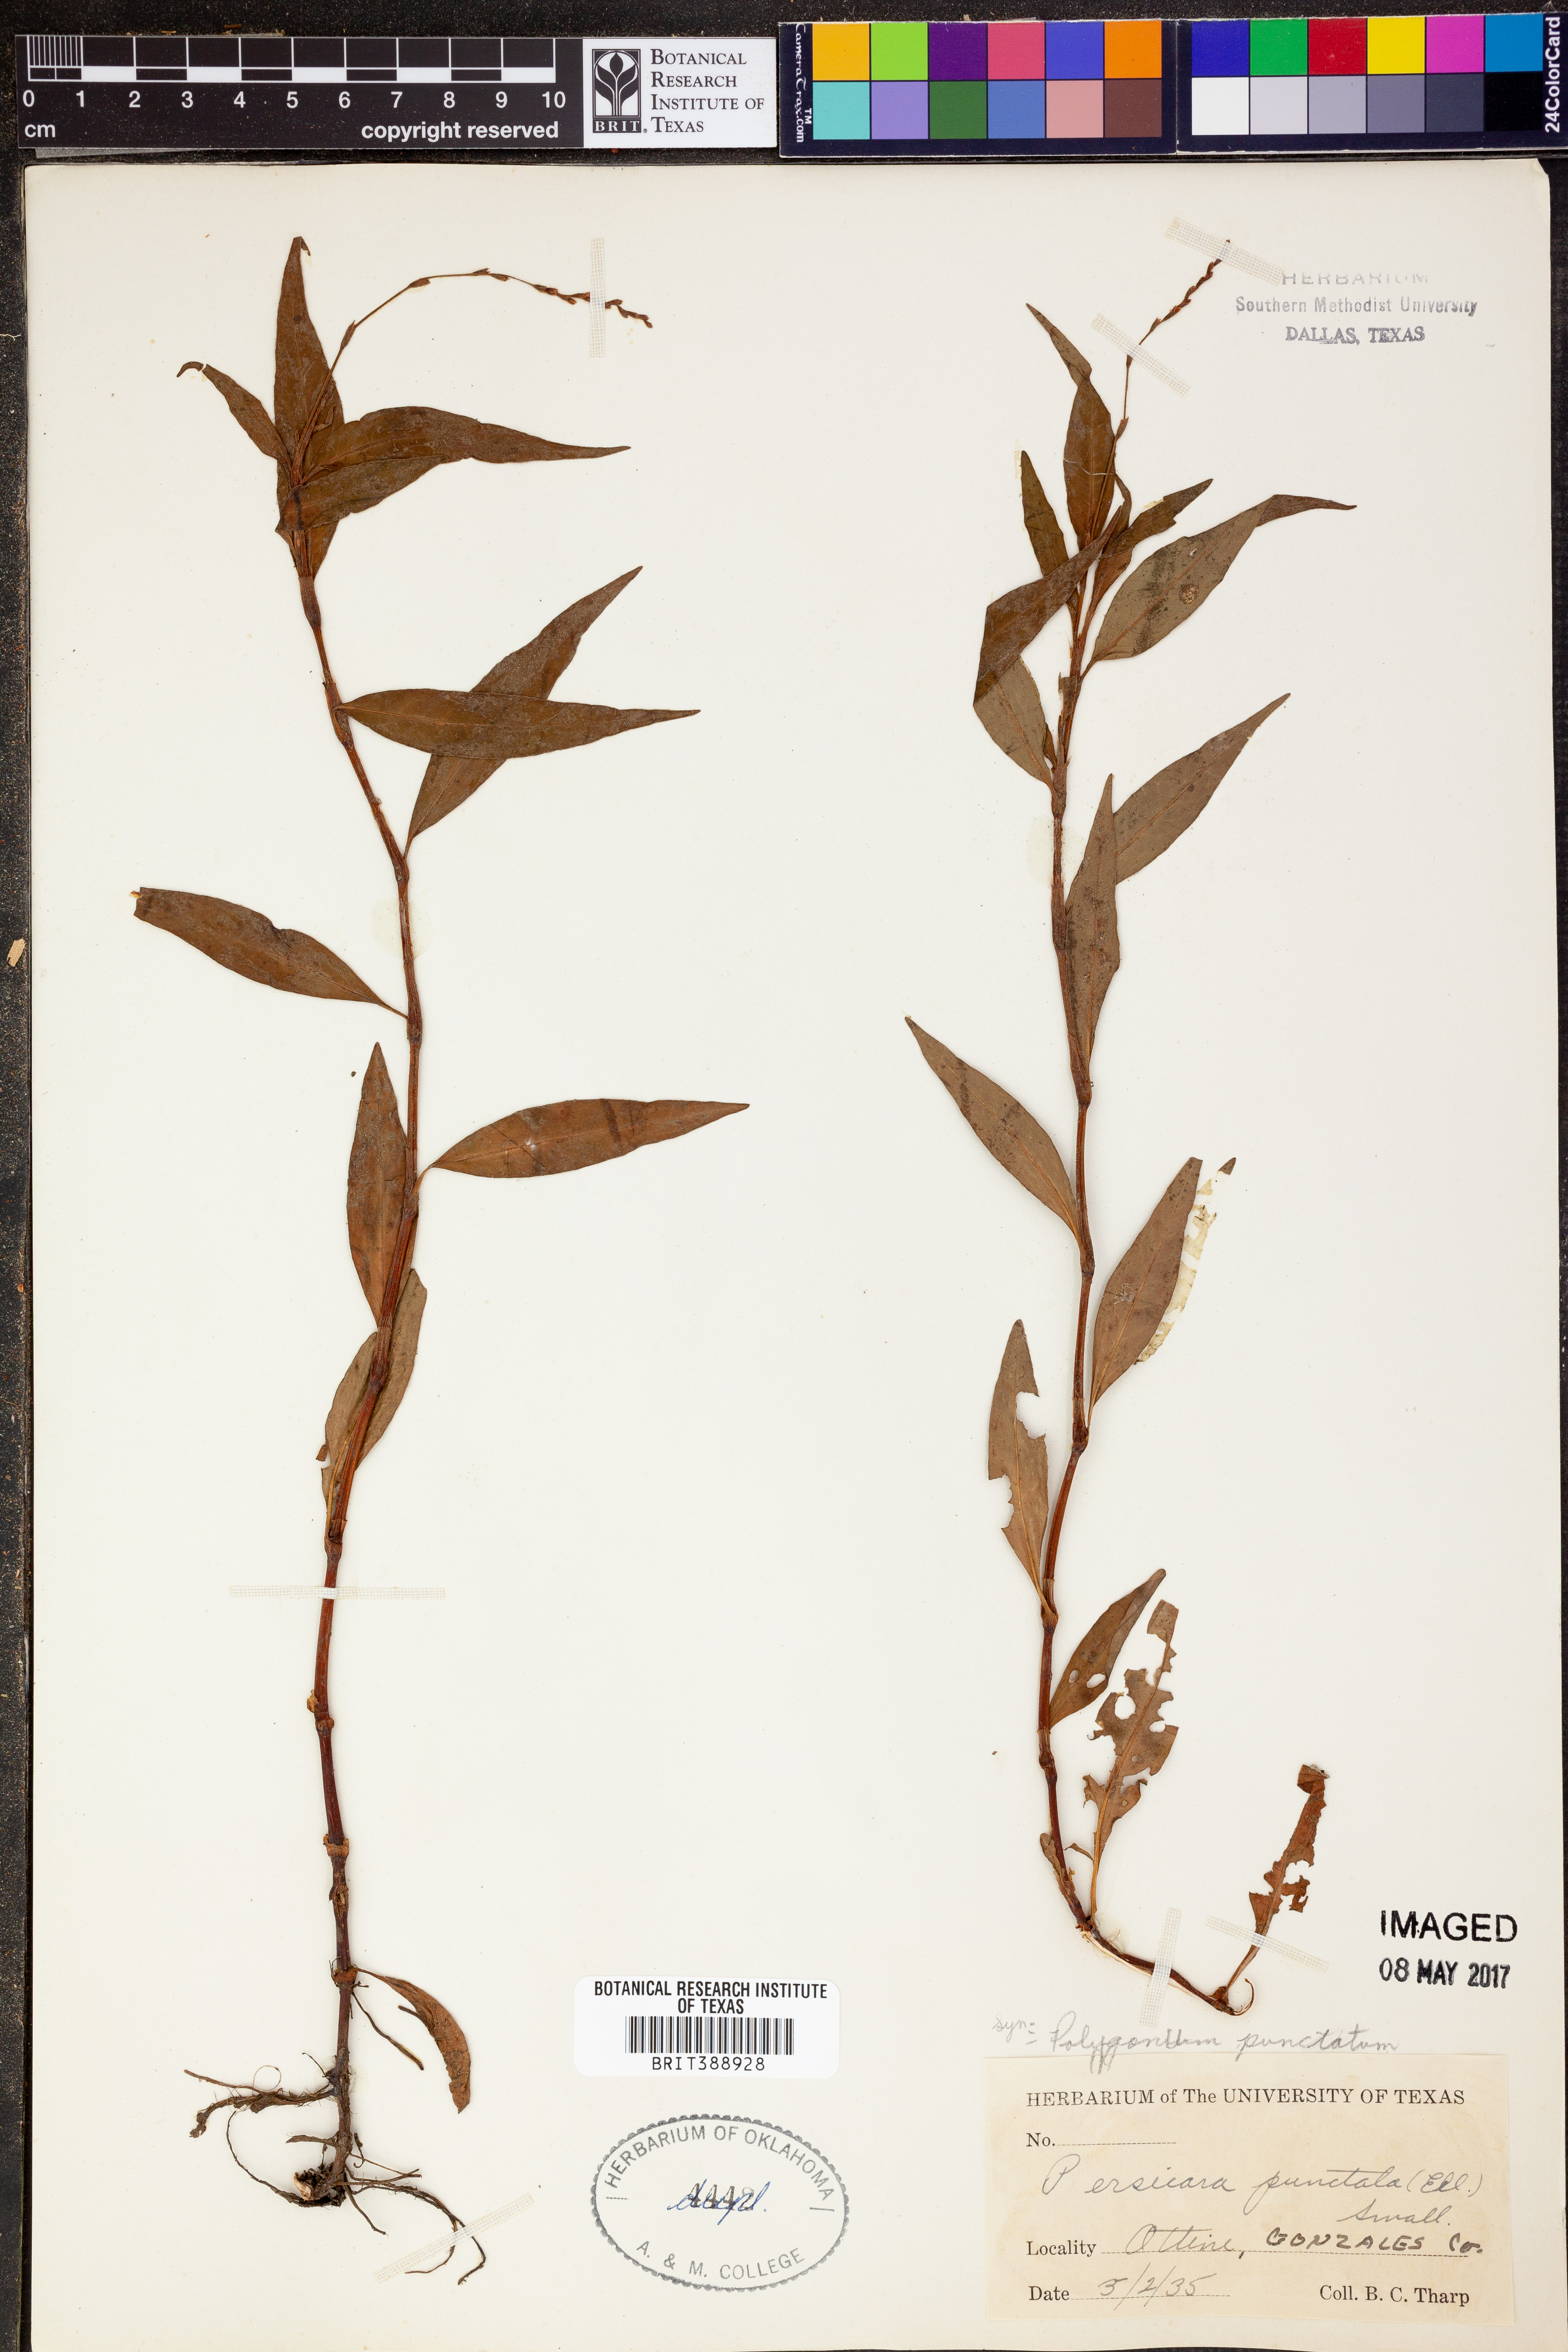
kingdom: Plantae
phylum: Tracheophyta
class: Magnoliopsida
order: Caryophyllales
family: Polygonaceae
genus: Persicaria
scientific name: Persicaria punctata
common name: Dotted smartweed
